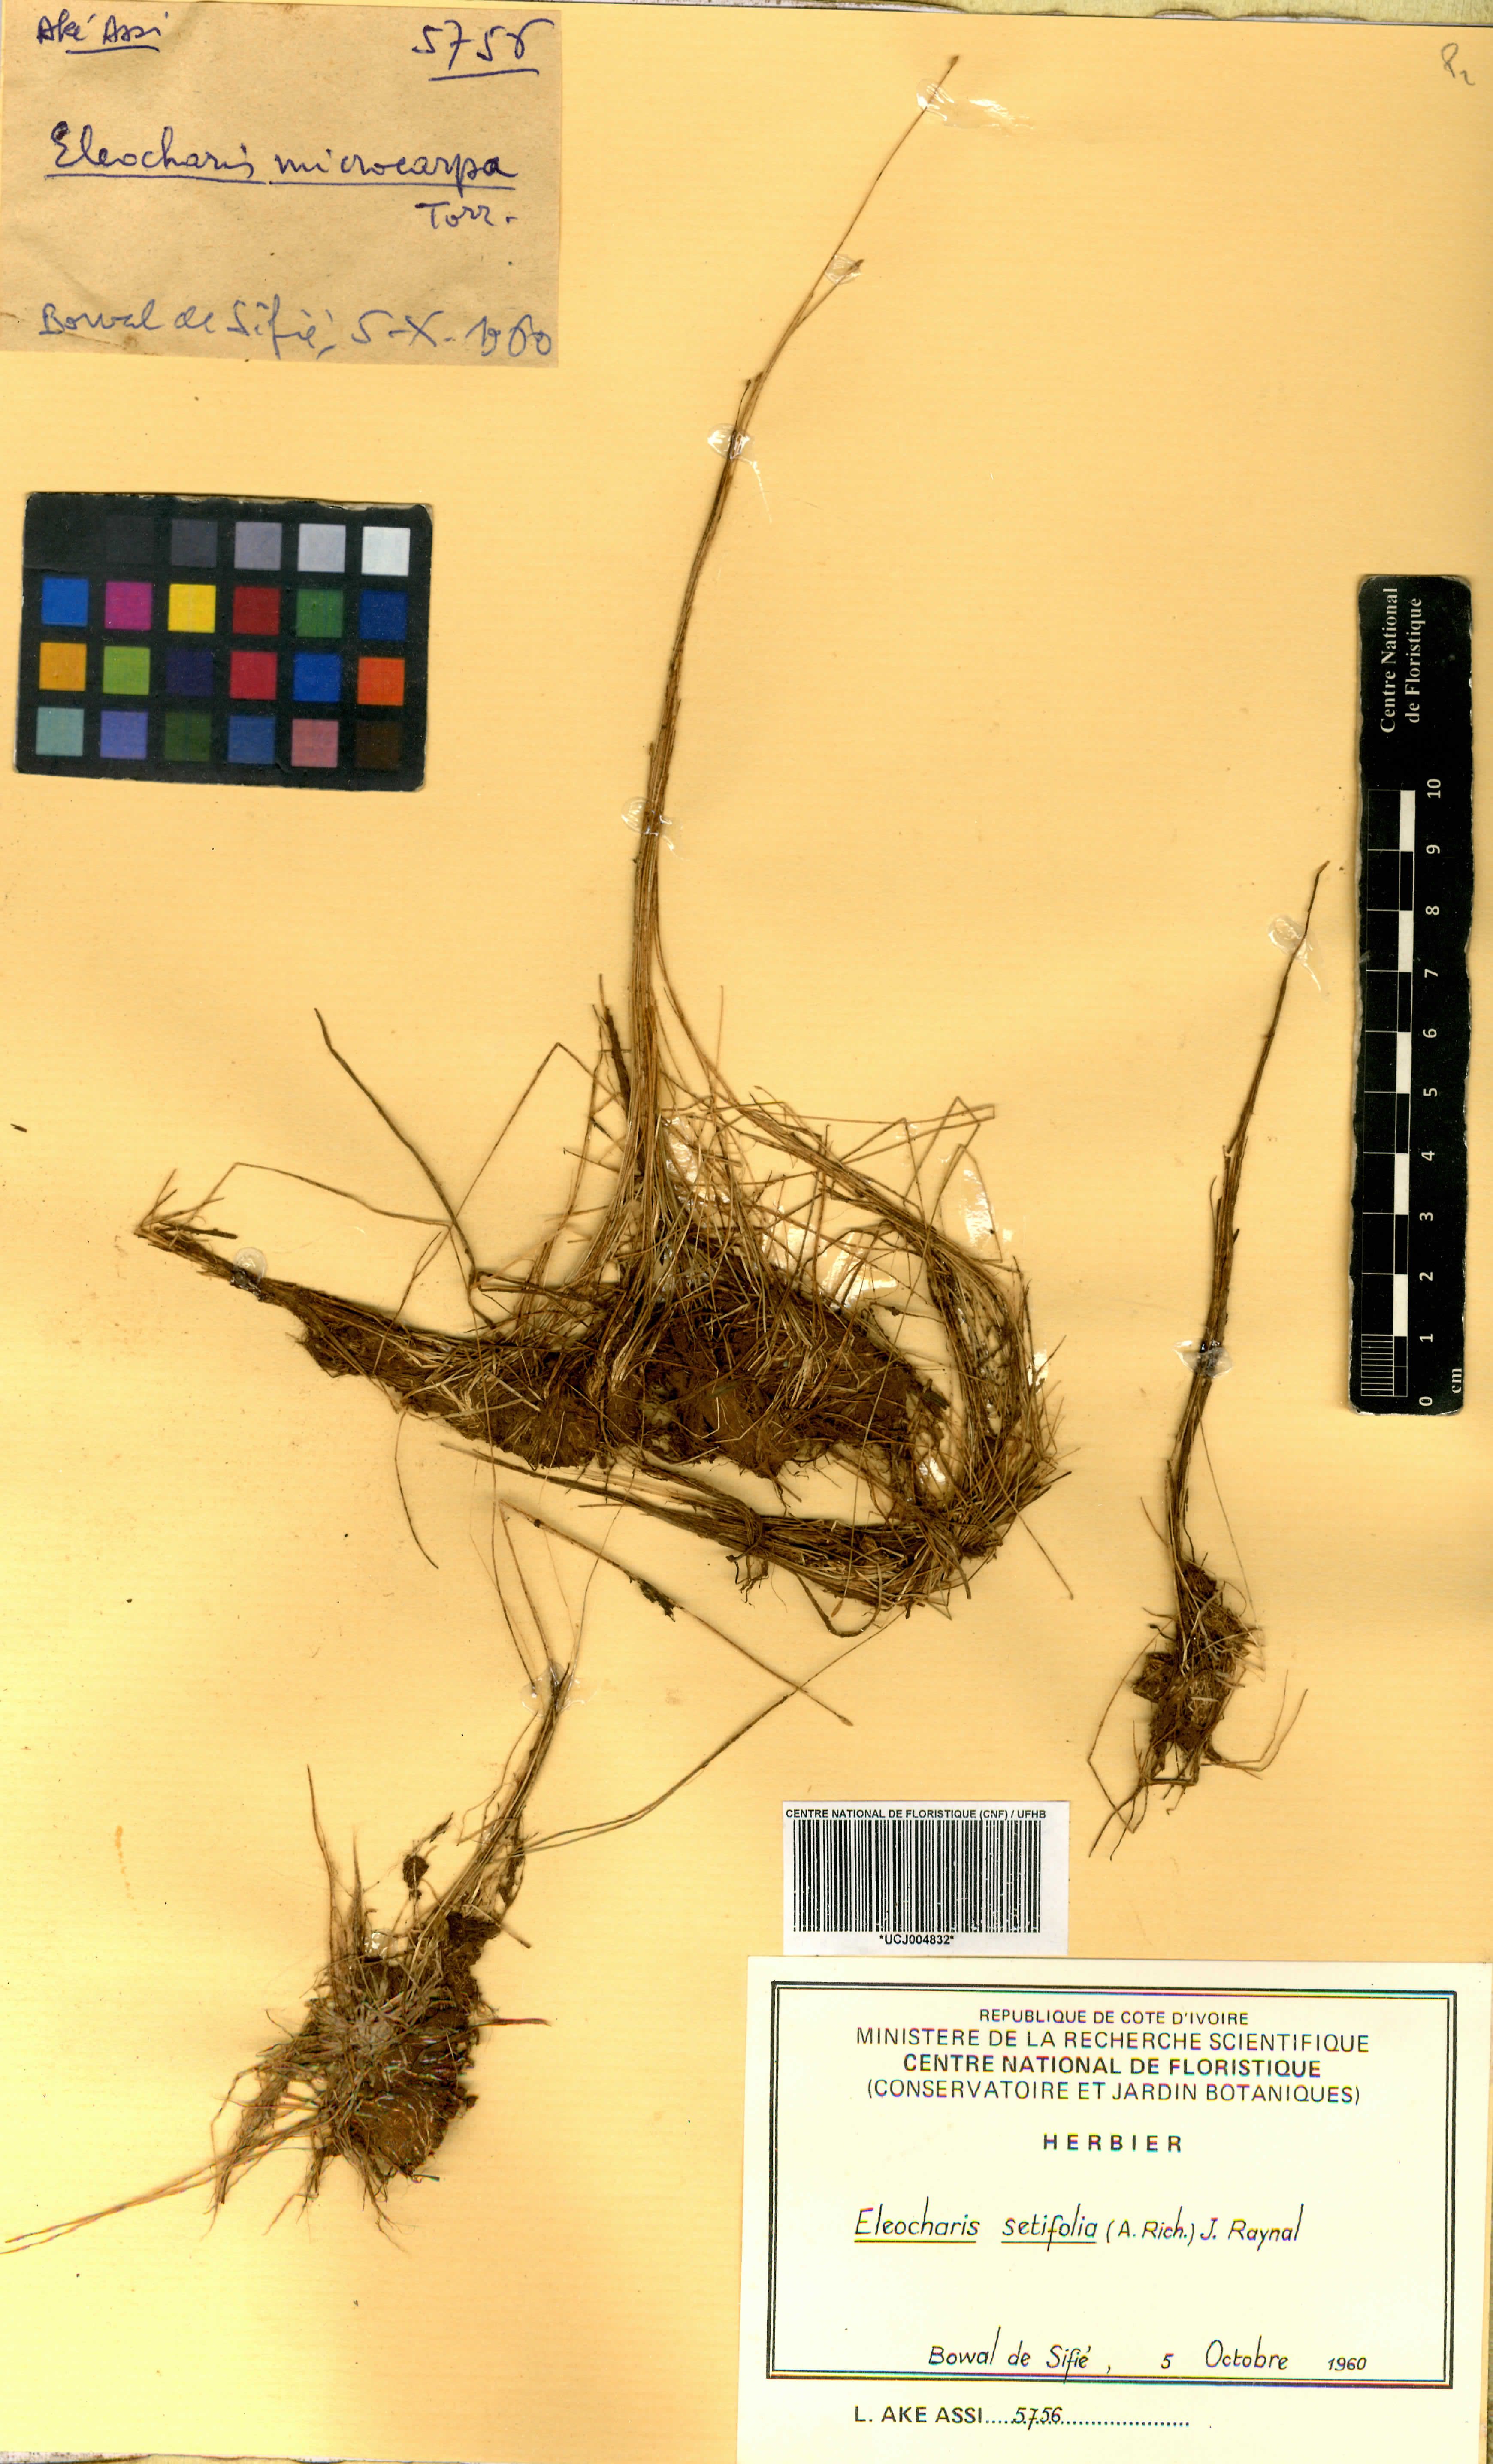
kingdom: Plantae
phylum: Tracheophyta
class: Liliopsida
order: Poales
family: Cyperaceae
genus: Eleocharis
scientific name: Eleocharis setifolia
